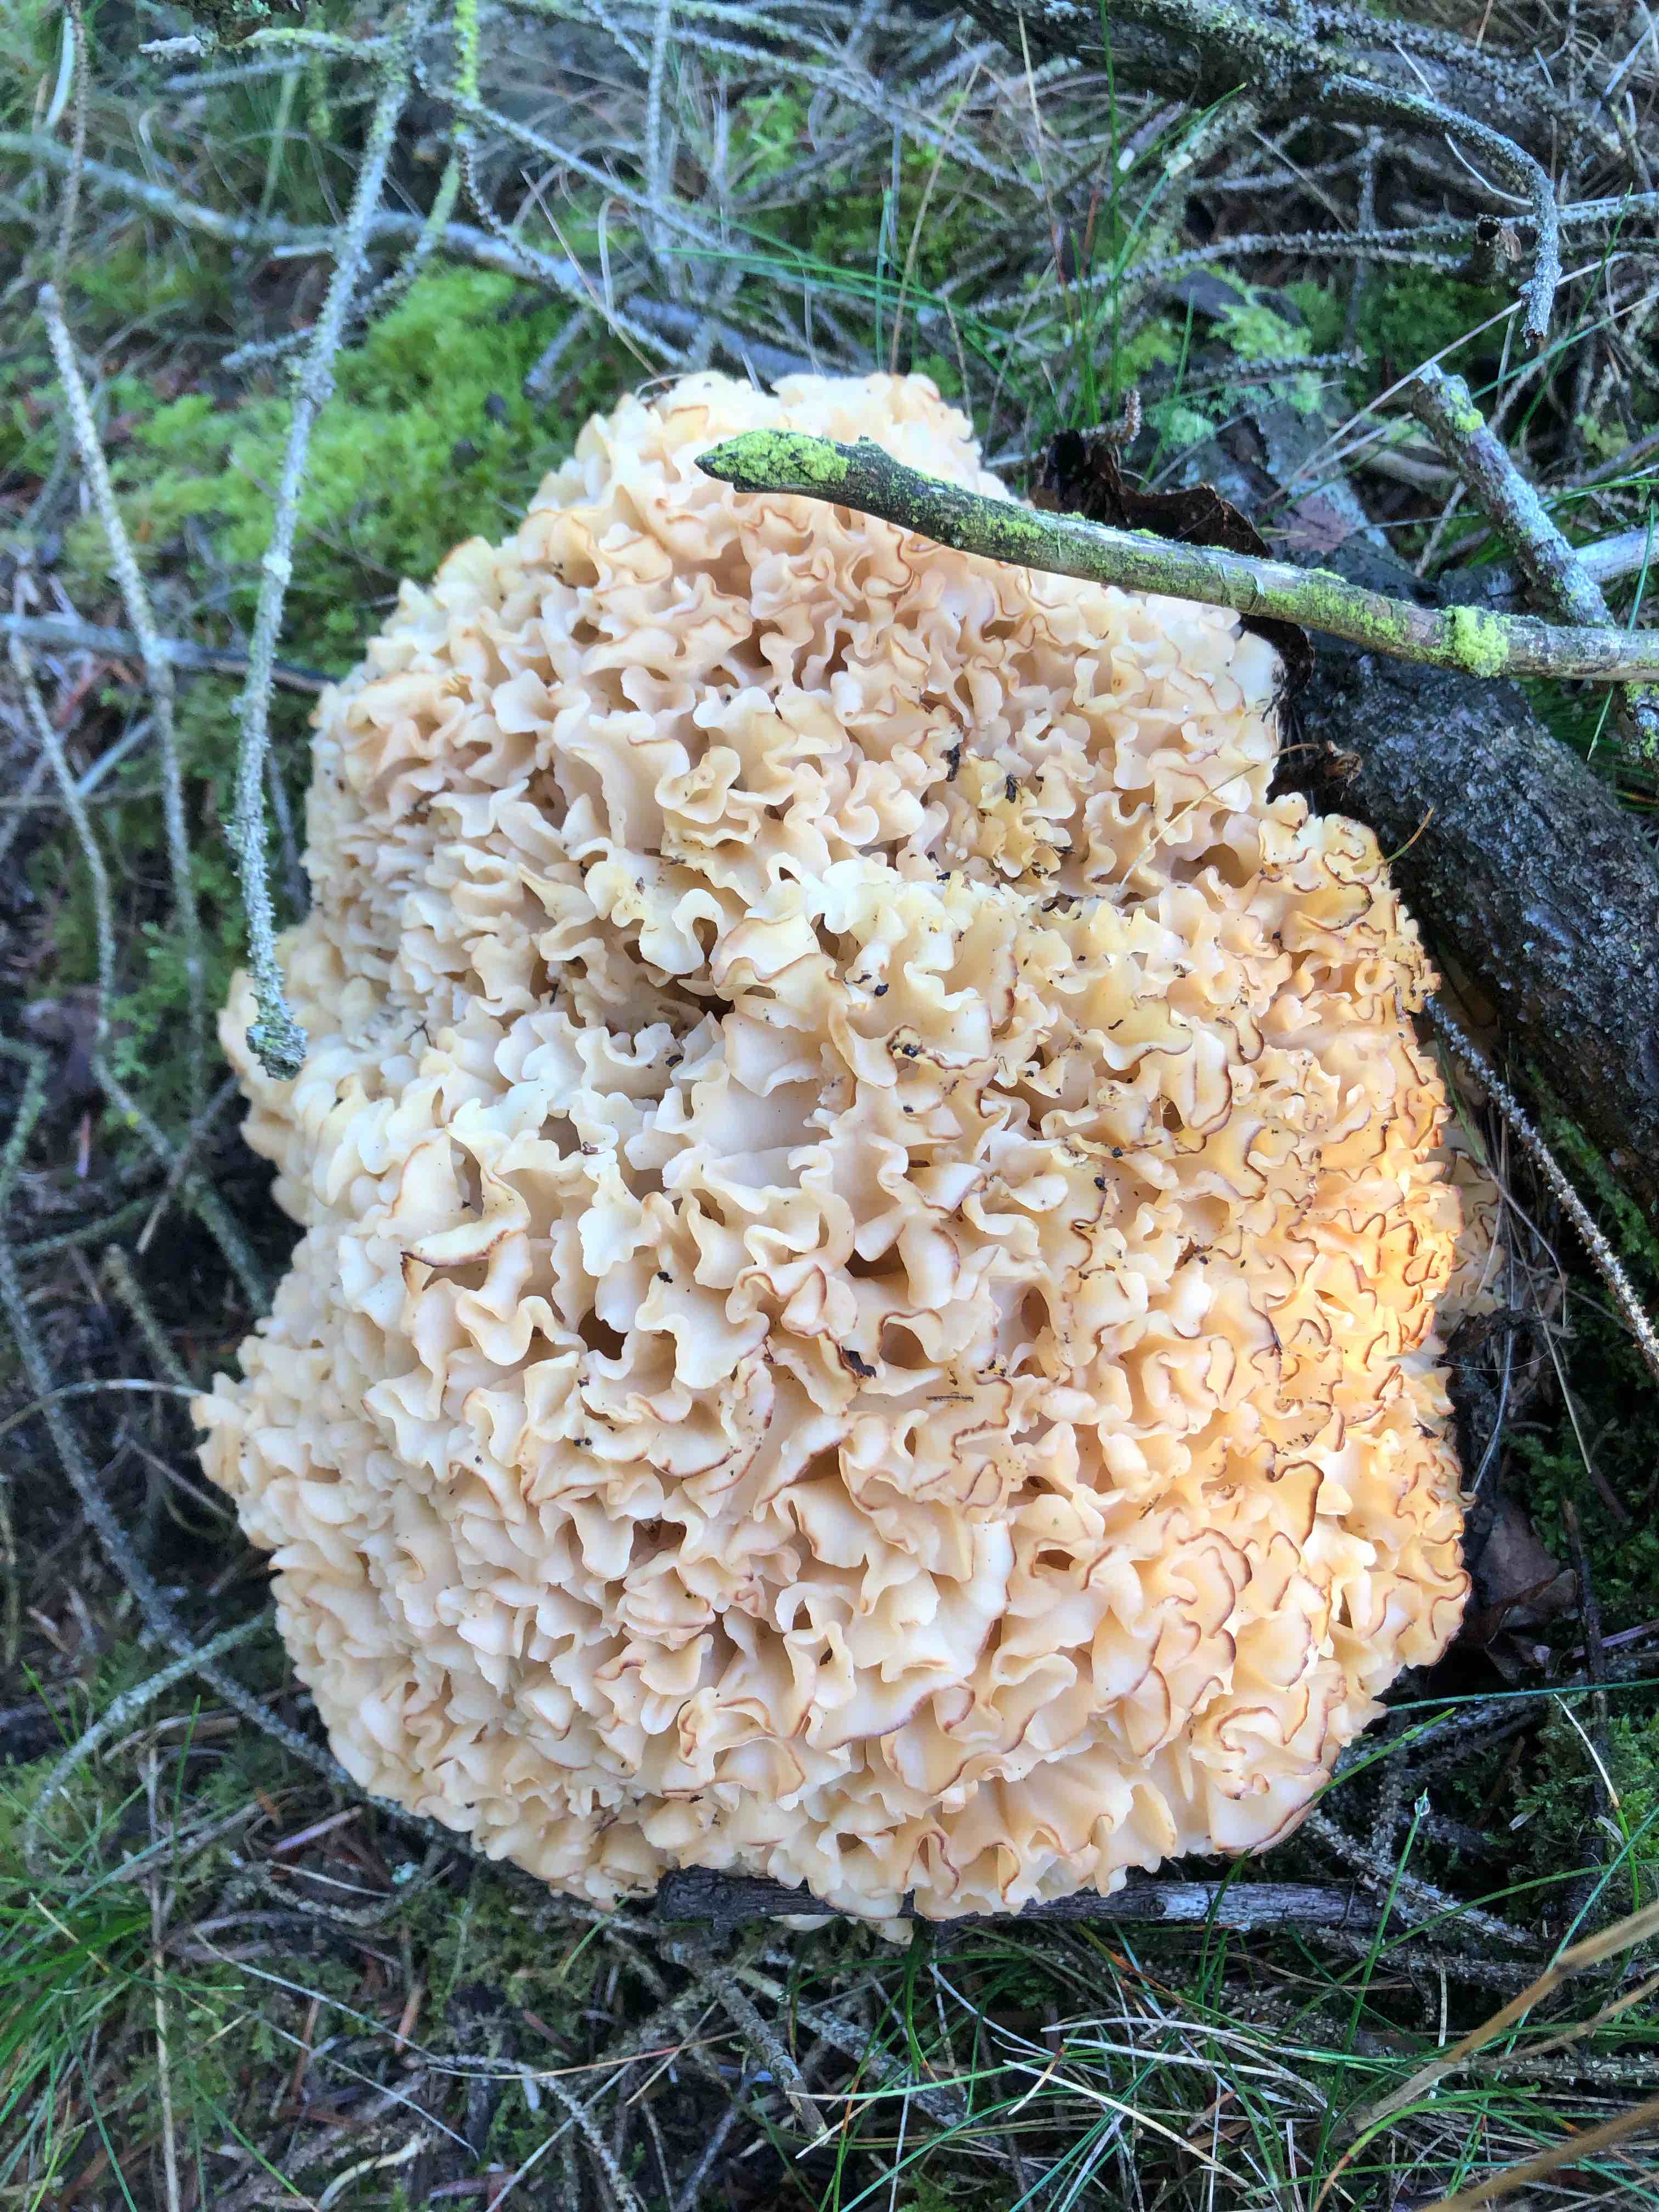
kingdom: Fungi
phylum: Basidiomycota
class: Agaricomycetes
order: Polyporales
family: Sparassidaceae
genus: Sparassis
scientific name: Sparassis crispa
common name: kruset blomkålssvamp
